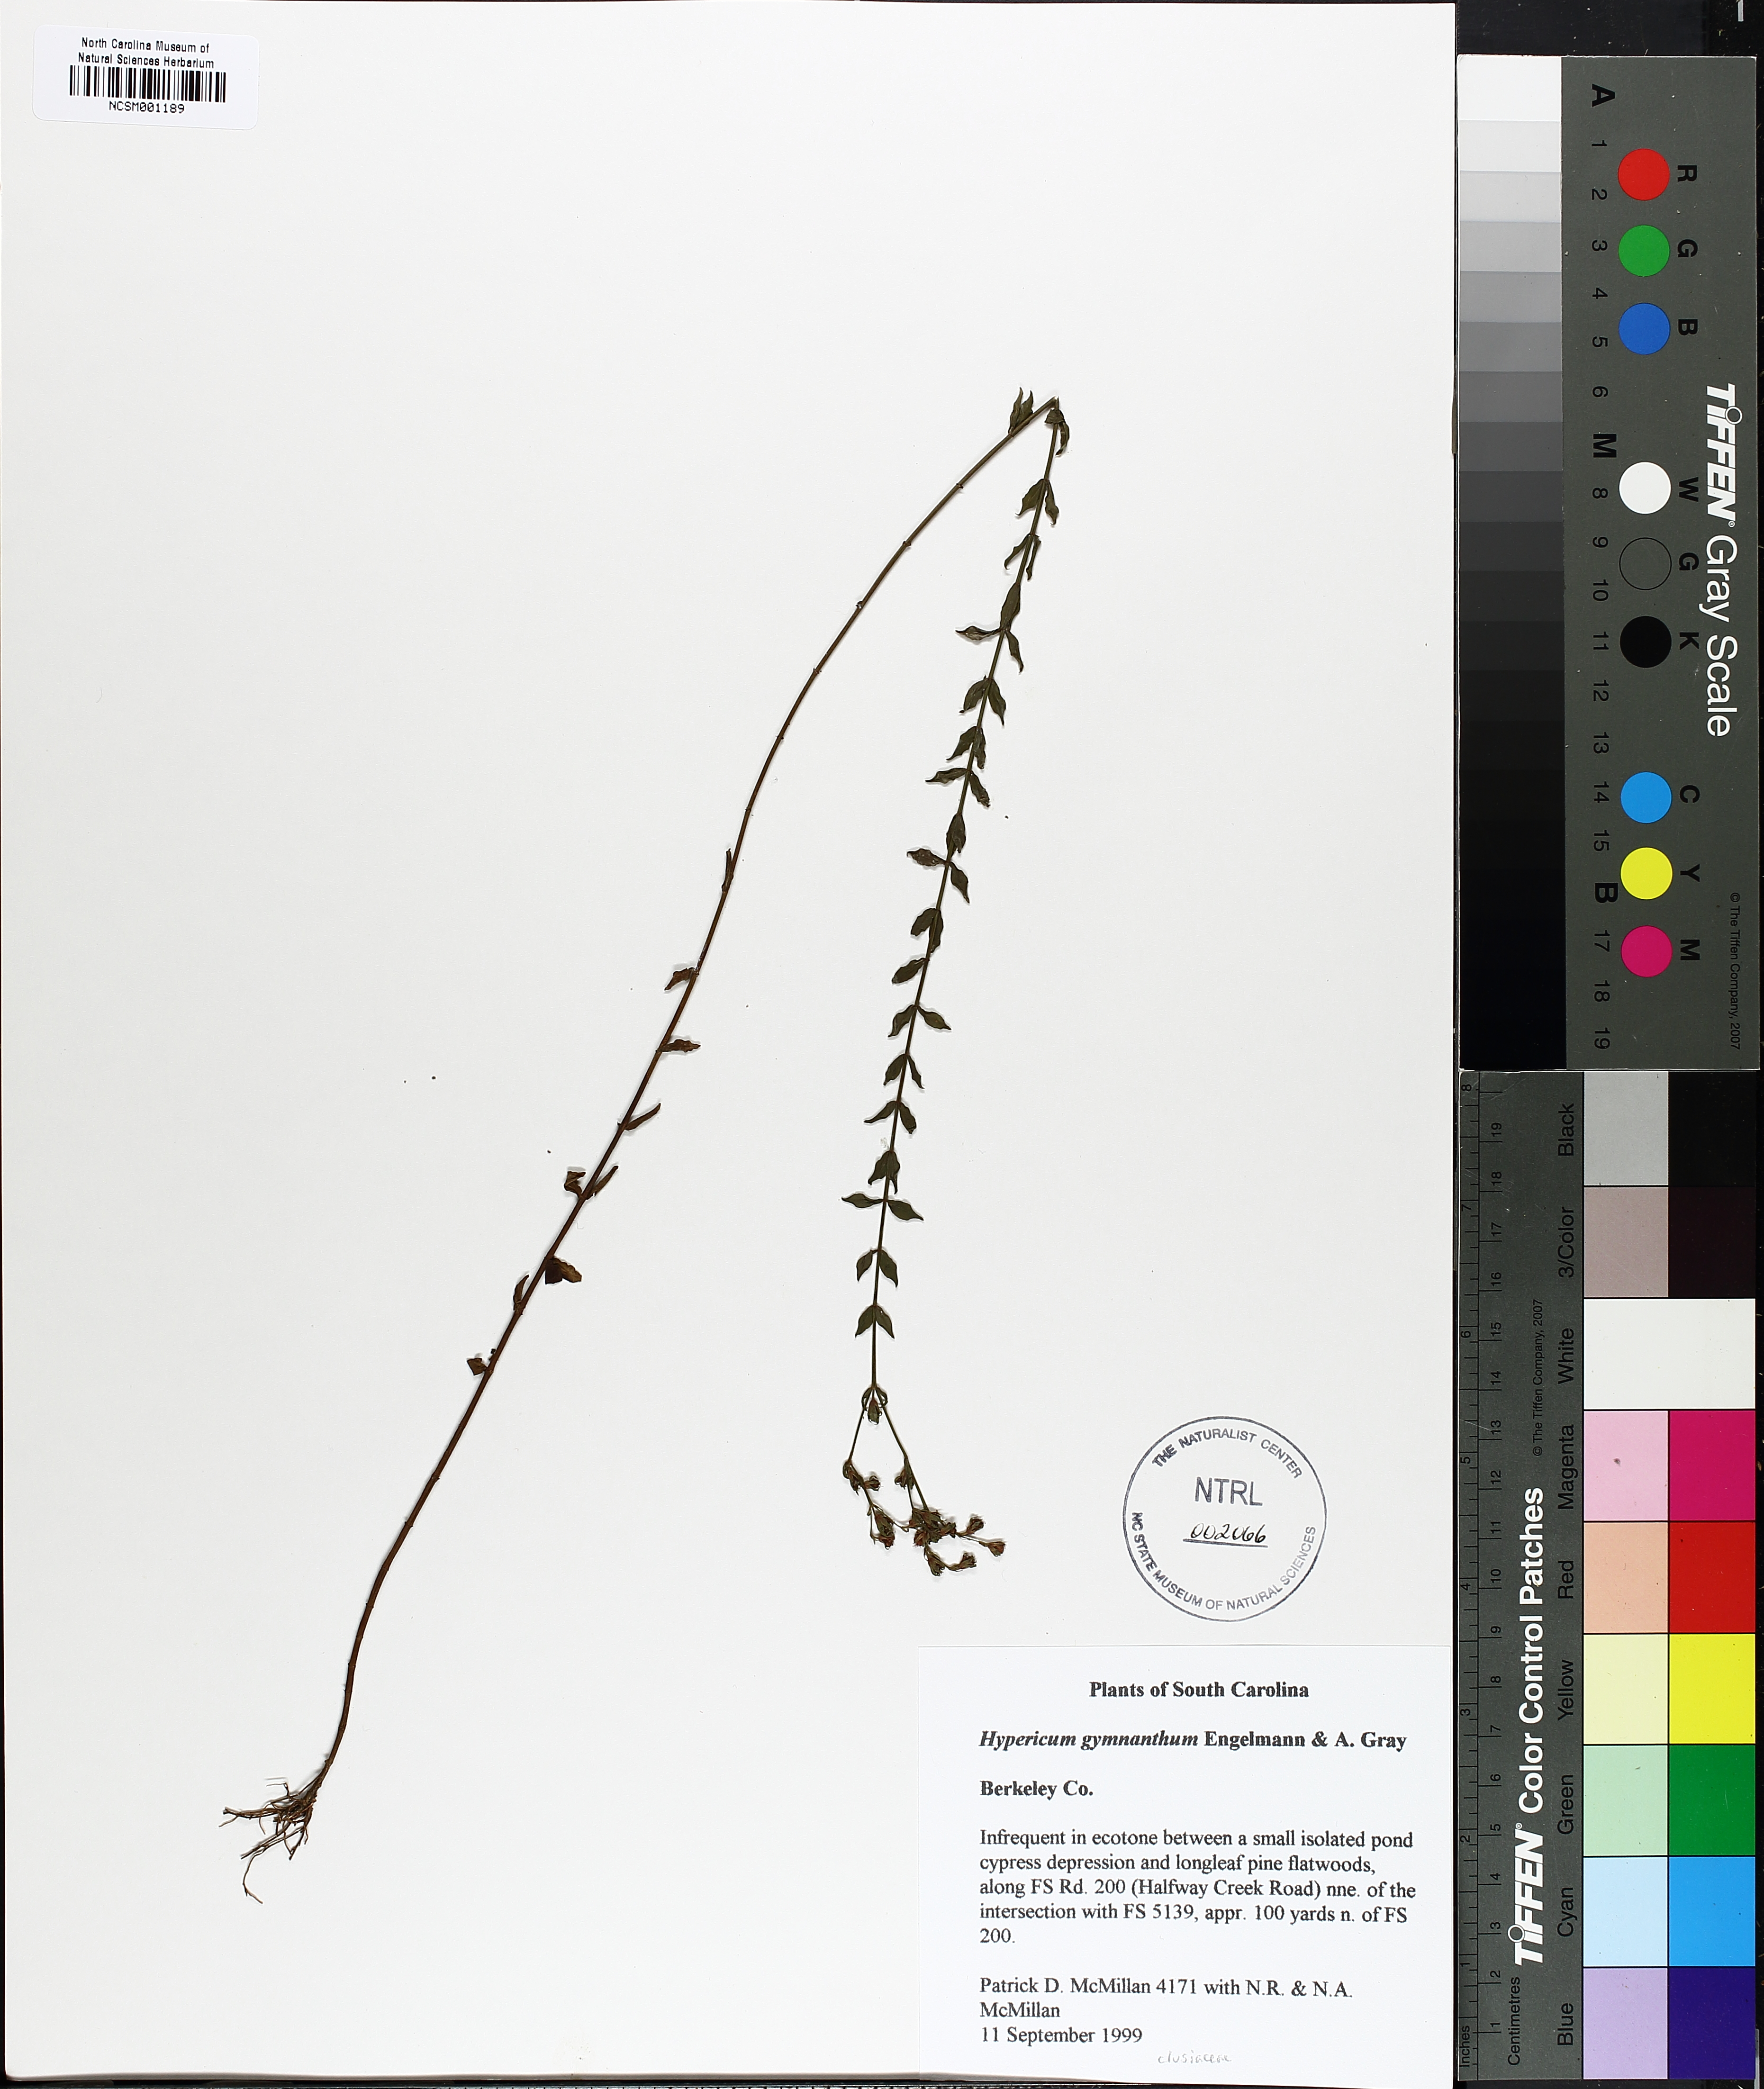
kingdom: Plantae
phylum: Tracheophyta
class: Magnoliopsida
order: Malpighiales
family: Hypericaceae
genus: Hypericum
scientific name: Hypericum gymnanthum
